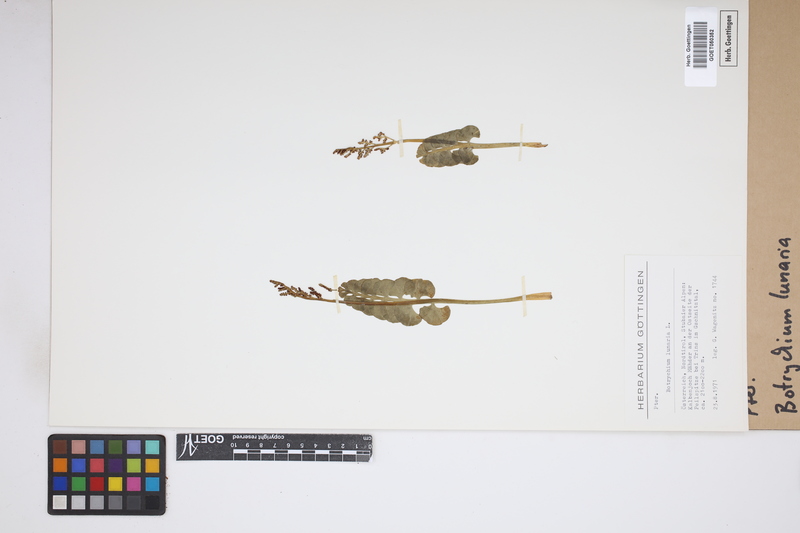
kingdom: Plantae
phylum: Tracheophyta
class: Polypodiopsida
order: Ophioglossales
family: Ophioglossaceae
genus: Botrychium
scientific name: Botrychium lunaria
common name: Moonwort
